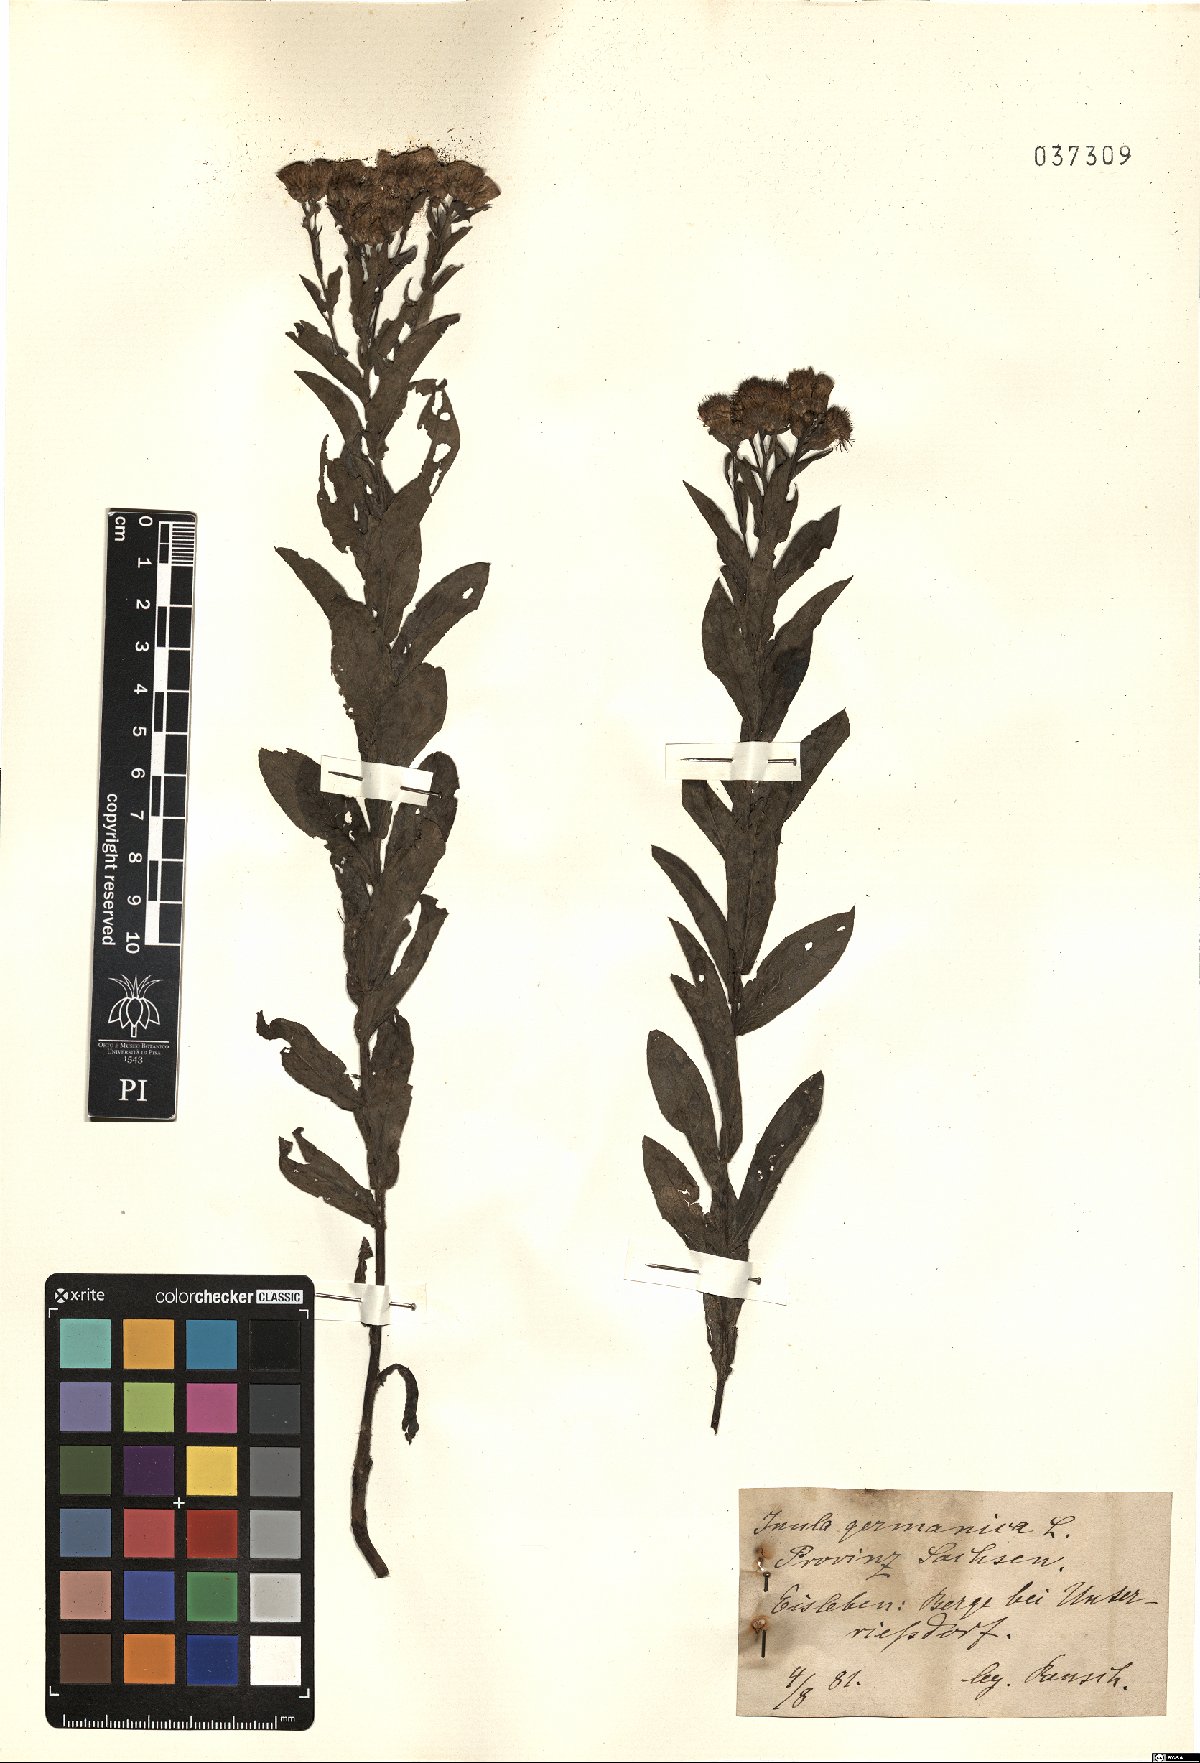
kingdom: Plantae
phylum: Tracheophyta
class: Magnoliopsida
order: Asterales
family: Asteraceae
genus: Pentanema
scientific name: Pentanema germanicum
